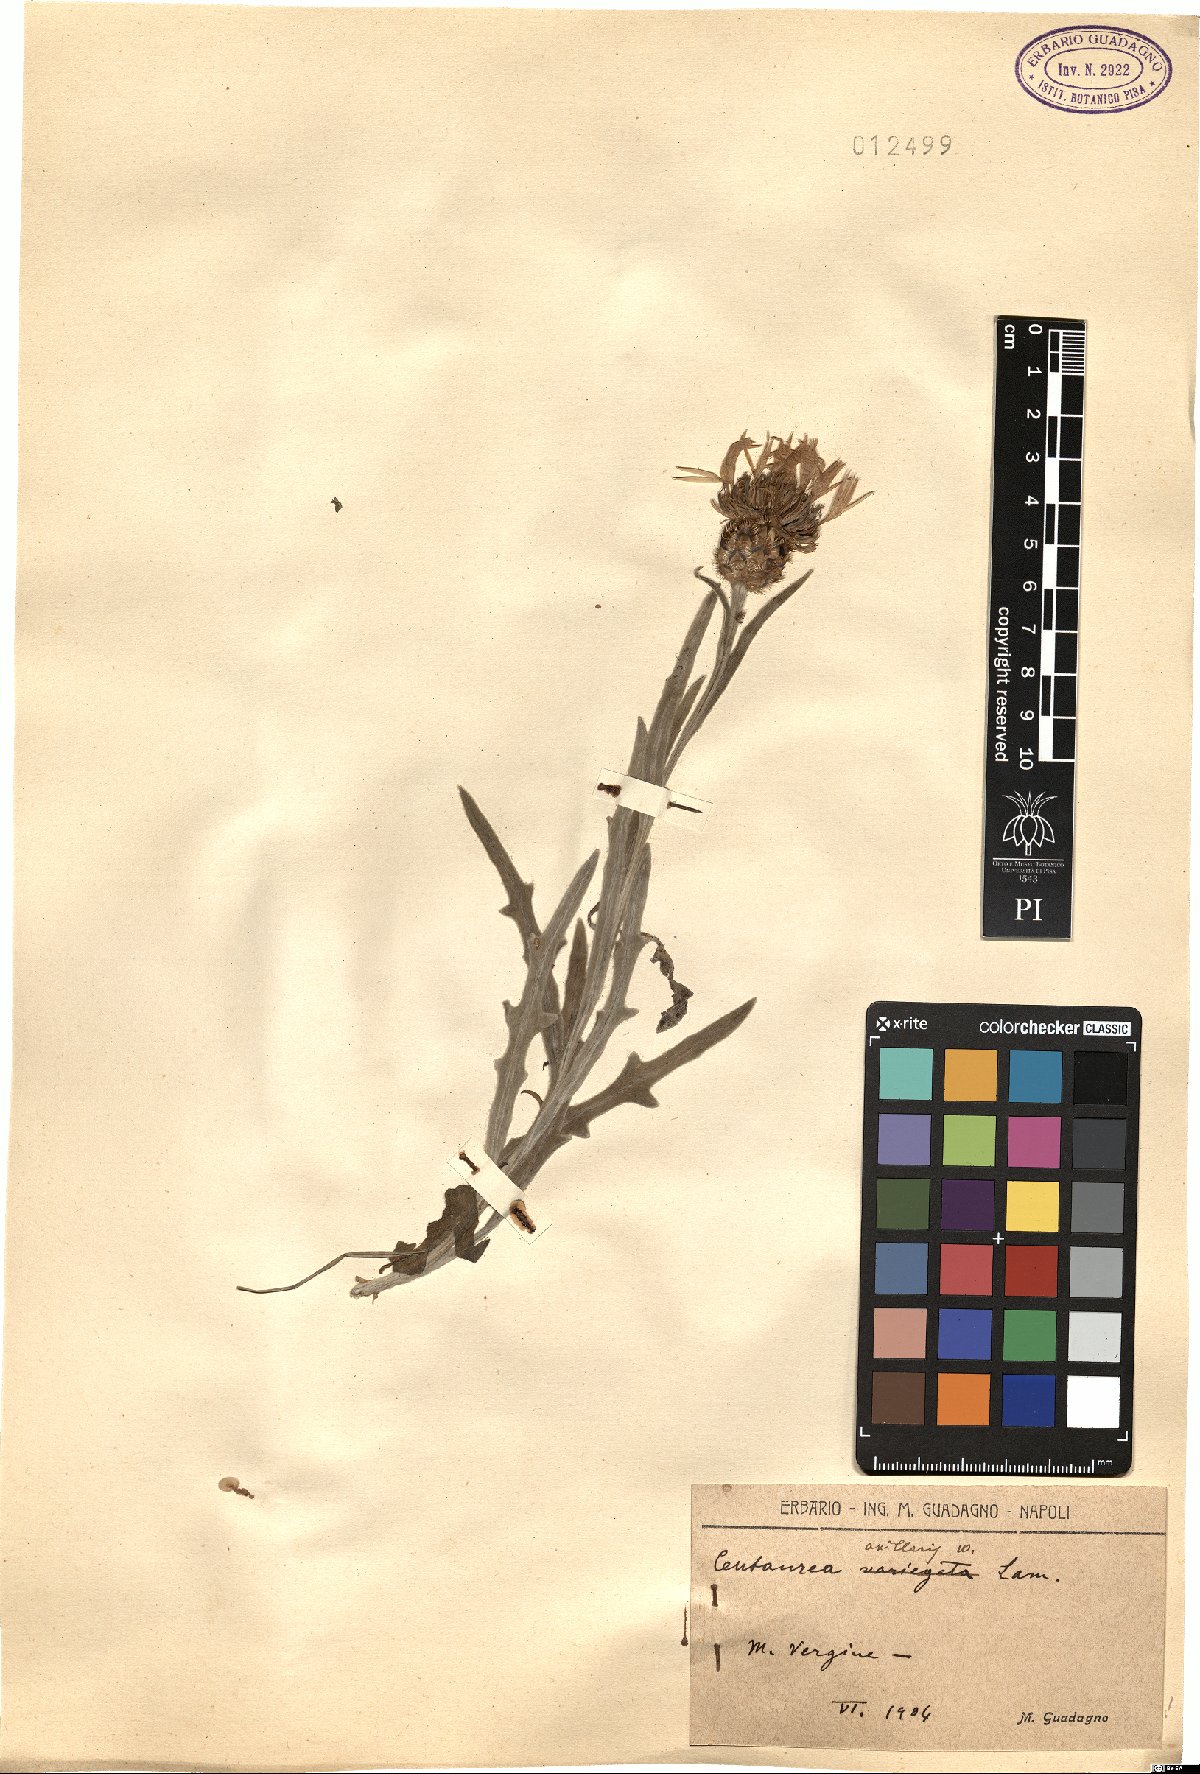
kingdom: Plantae
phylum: Tracheophyta
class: Magnoliopsida
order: Asterales
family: Asteraceae
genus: Centaurea
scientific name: Centaurea triumfettii
